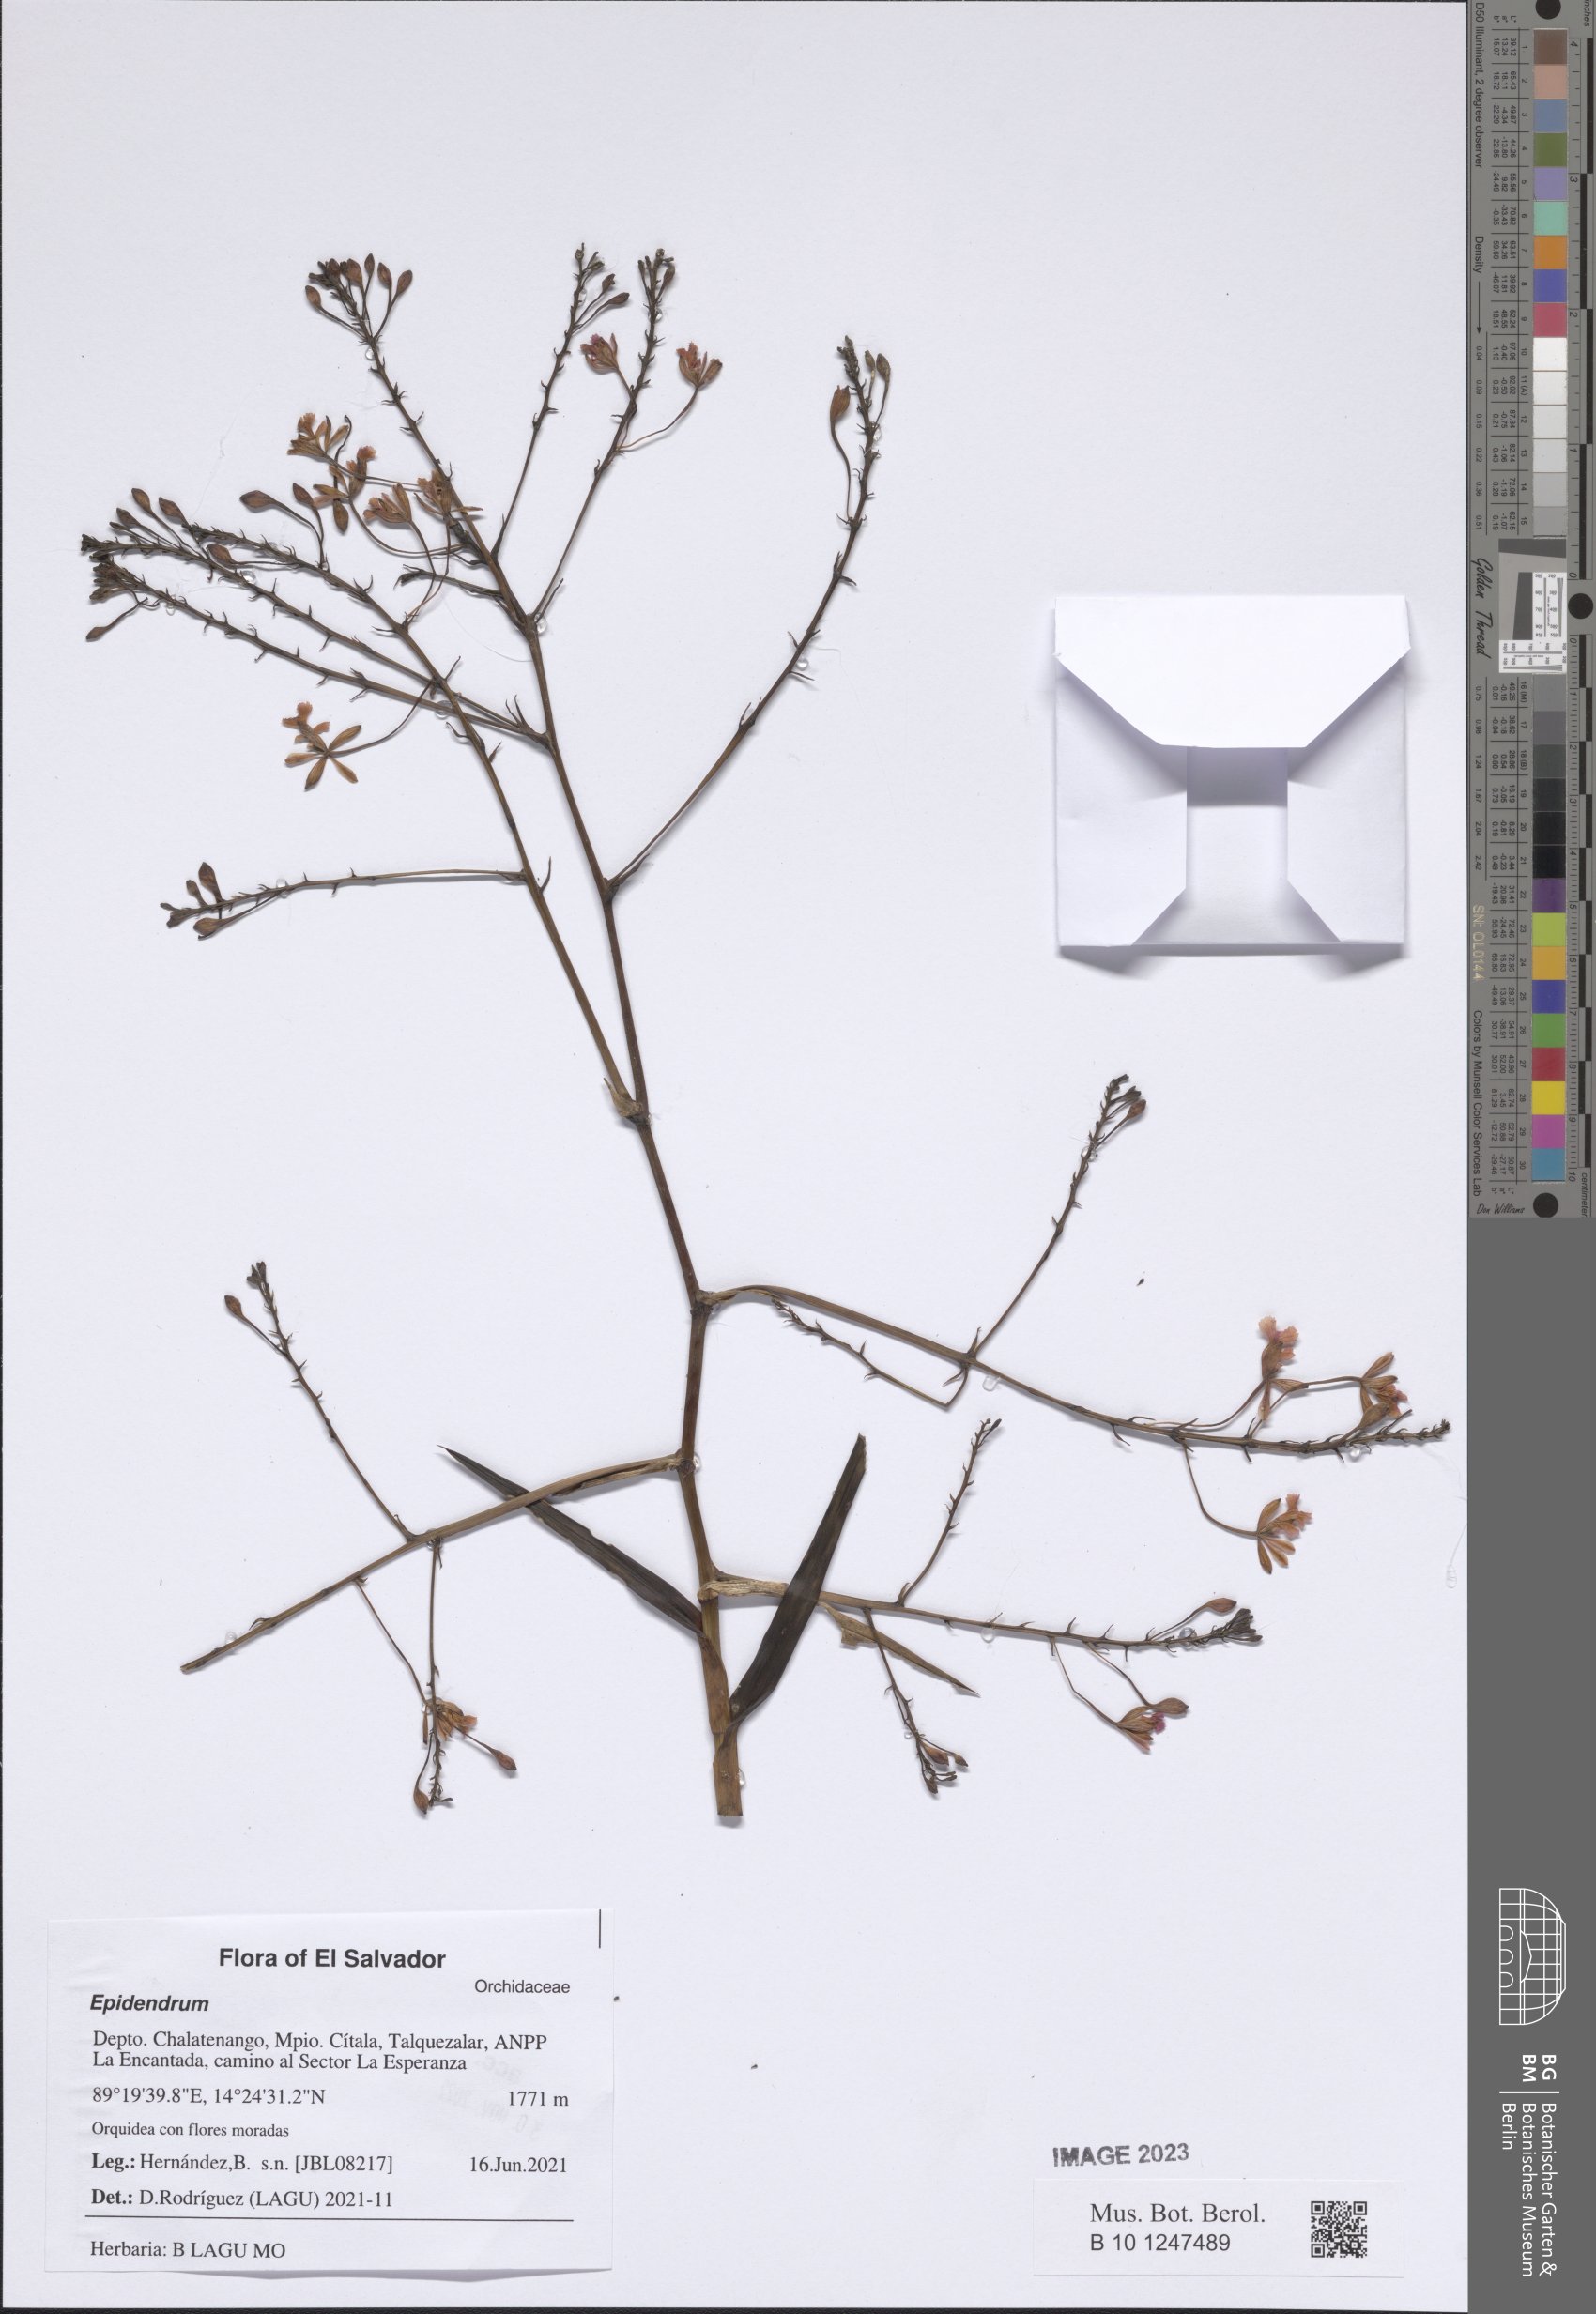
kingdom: Plantae
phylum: Tracheophyta
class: Liliopsida
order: Asparagales
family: Orchidaceae
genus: Epidendrum
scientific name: Epidendrum
